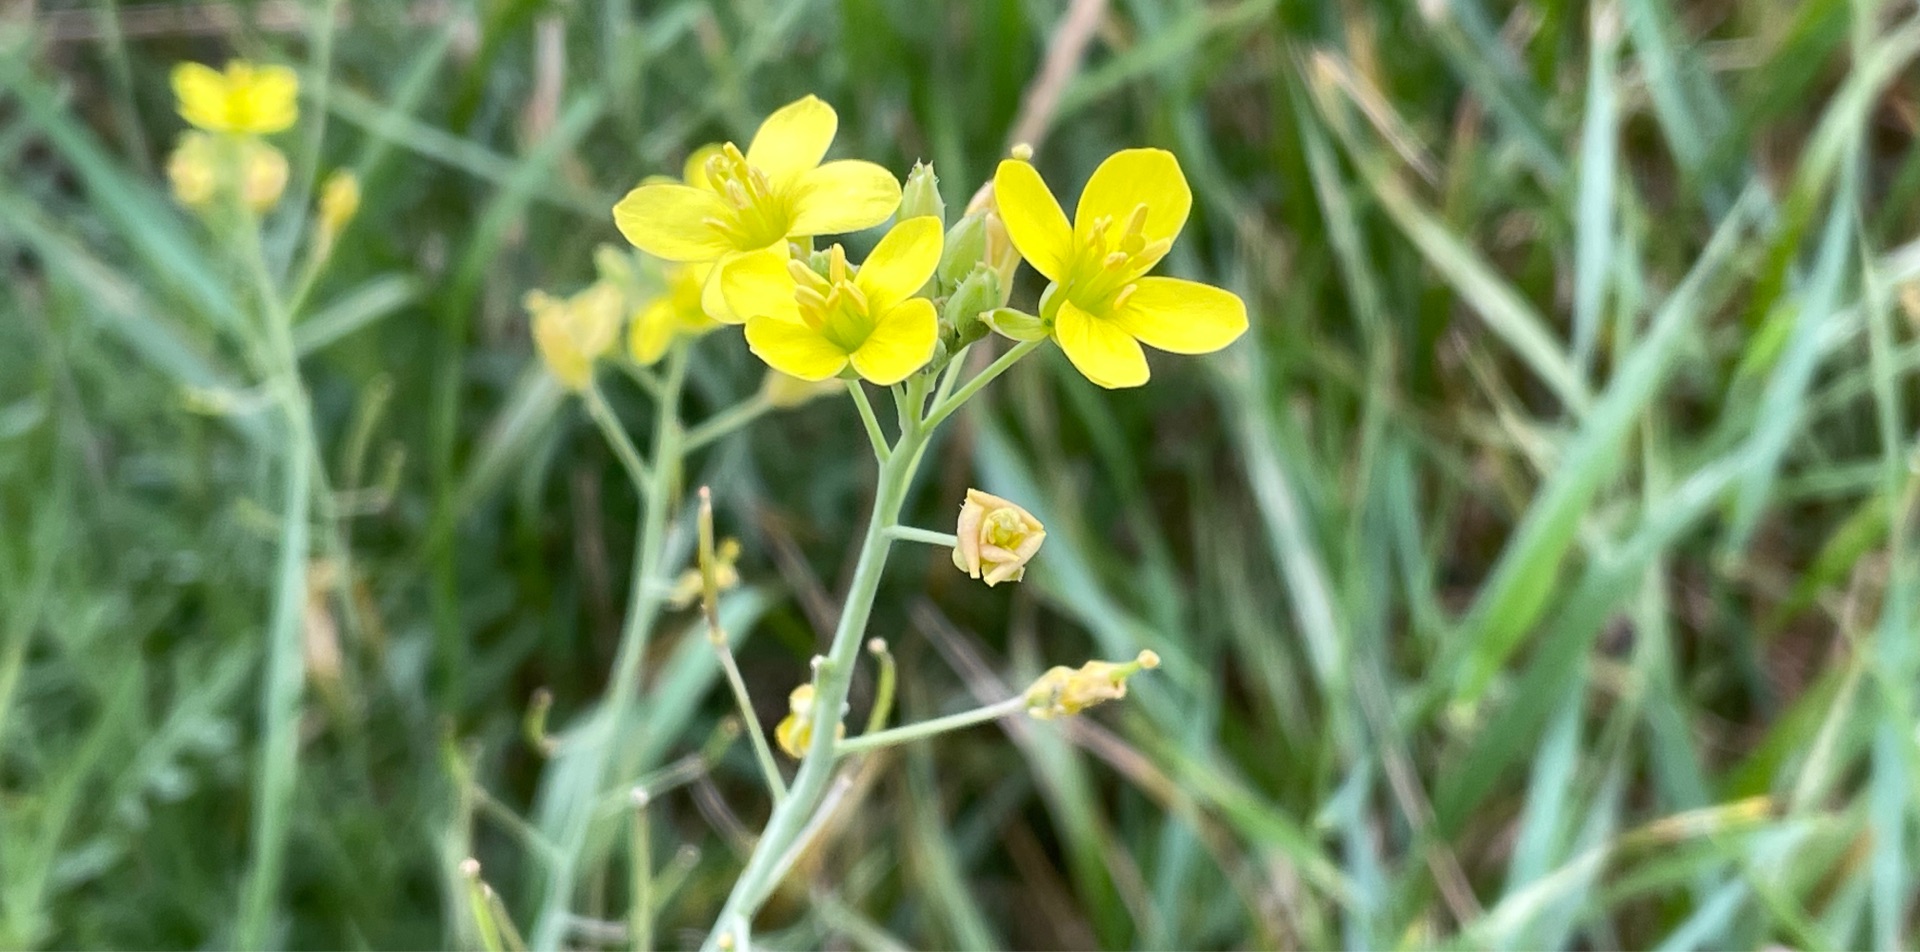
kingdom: Plantae
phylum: Tracheophyta
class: Magnoliopsida
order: Brassicales
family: Brassicaceae
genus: Diplotaxis
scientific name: Diplotaxis tenuifolia
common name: Sandsennep
